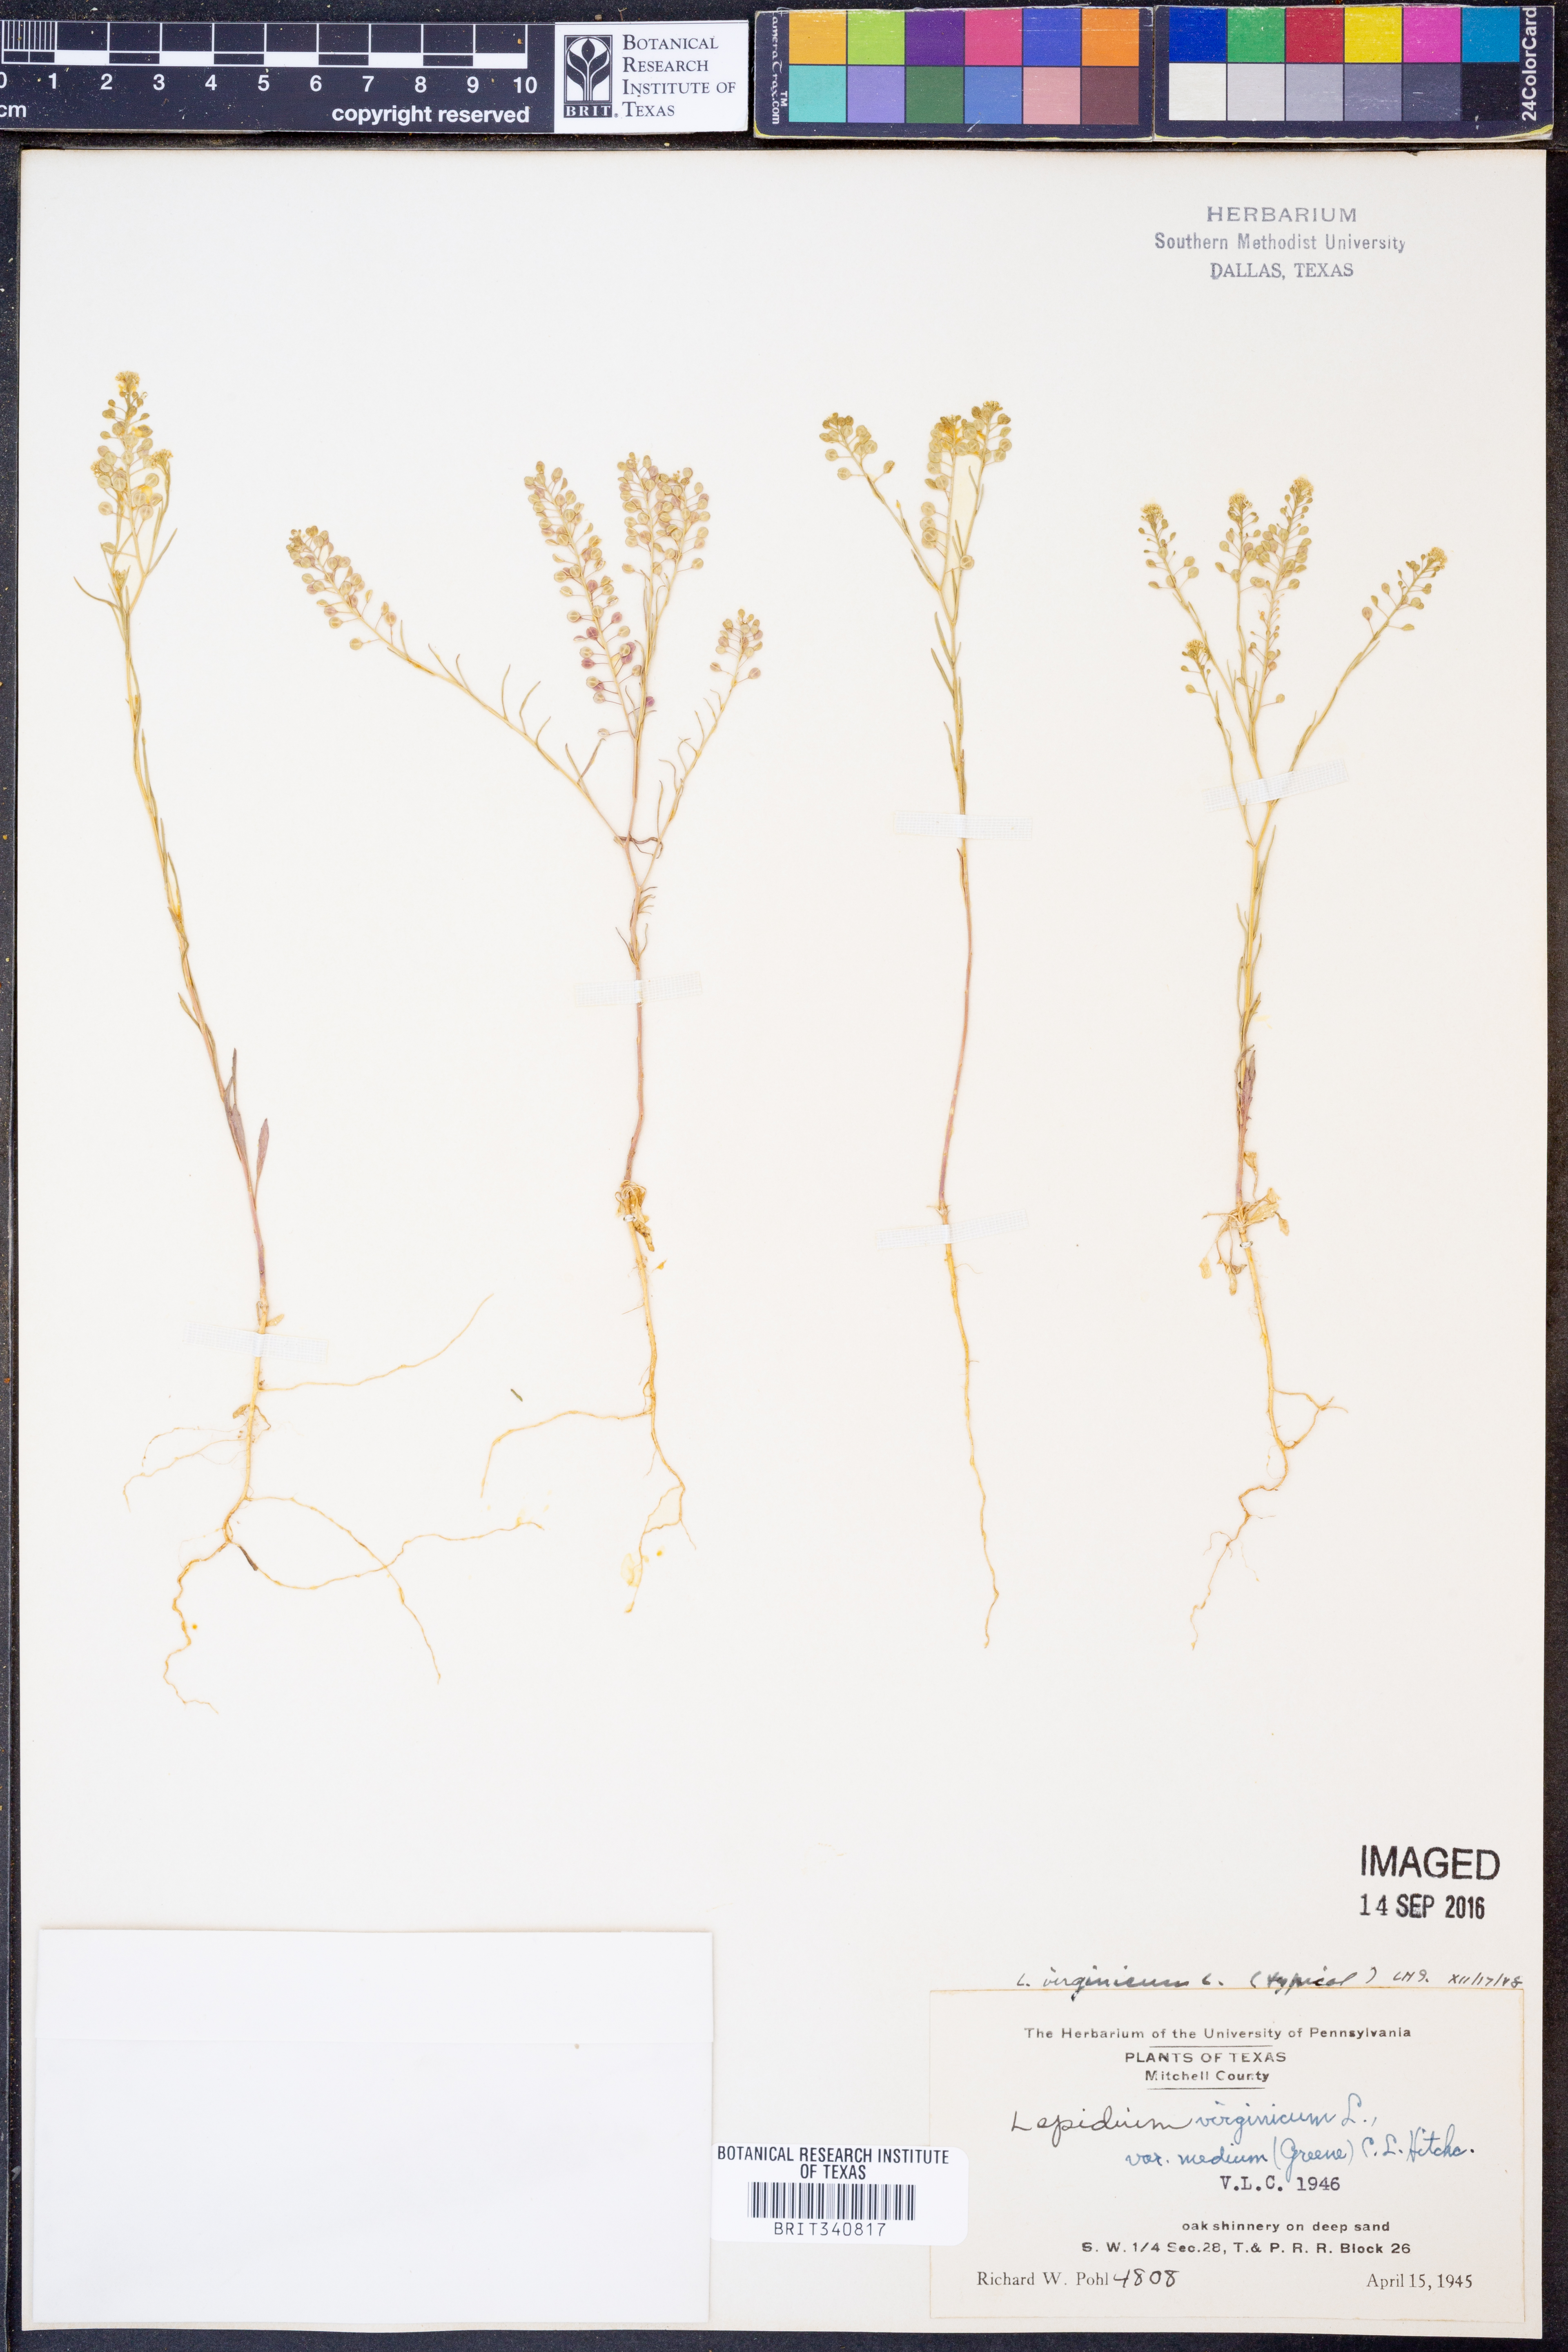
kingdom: Plantae
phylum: Tracheophyta
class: Magnoliopsida
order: Brassicales
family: Brassicaceae
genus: Lepidium
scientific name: Lepidium virginicum
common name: Least pepperwort
